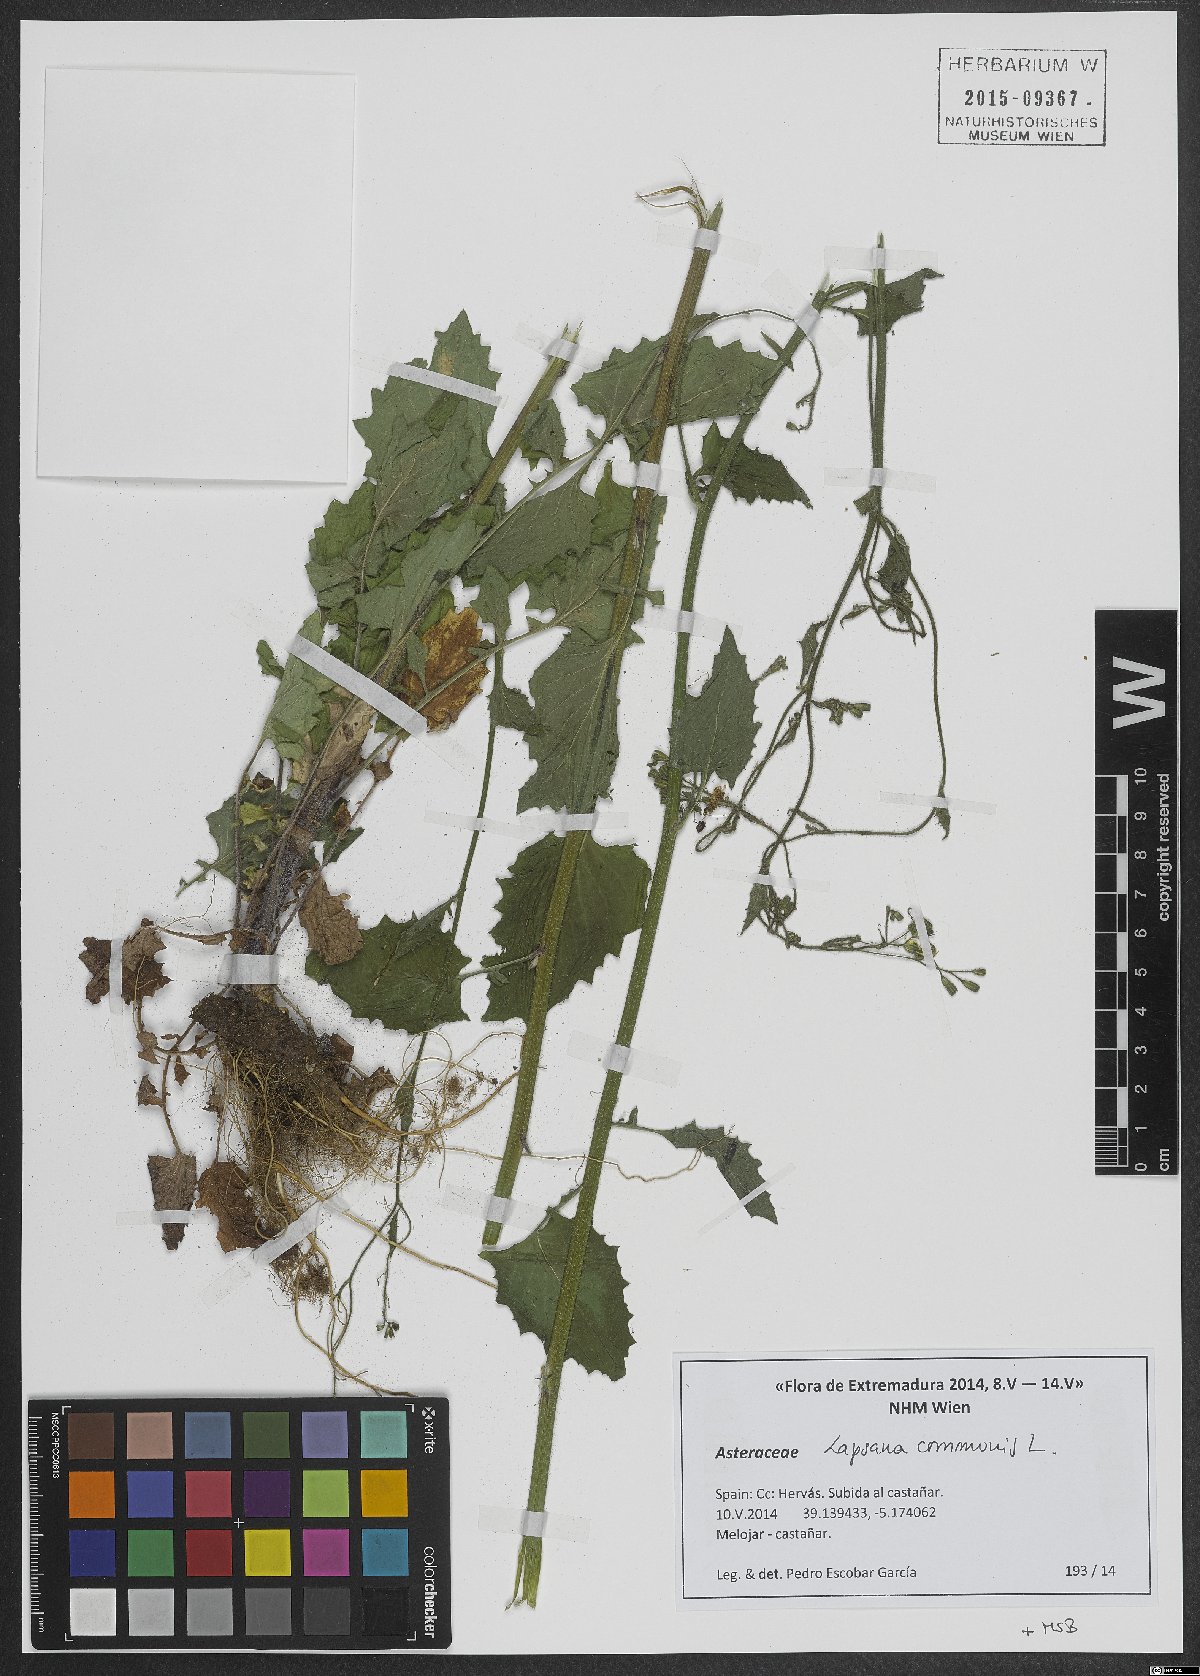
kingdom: Plantae
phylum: Tracheophyta
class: Magnoliopsida
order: Asterales
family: Asteraceae
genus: Lapsana
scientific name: Lapsana communis
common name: Nipplewort
